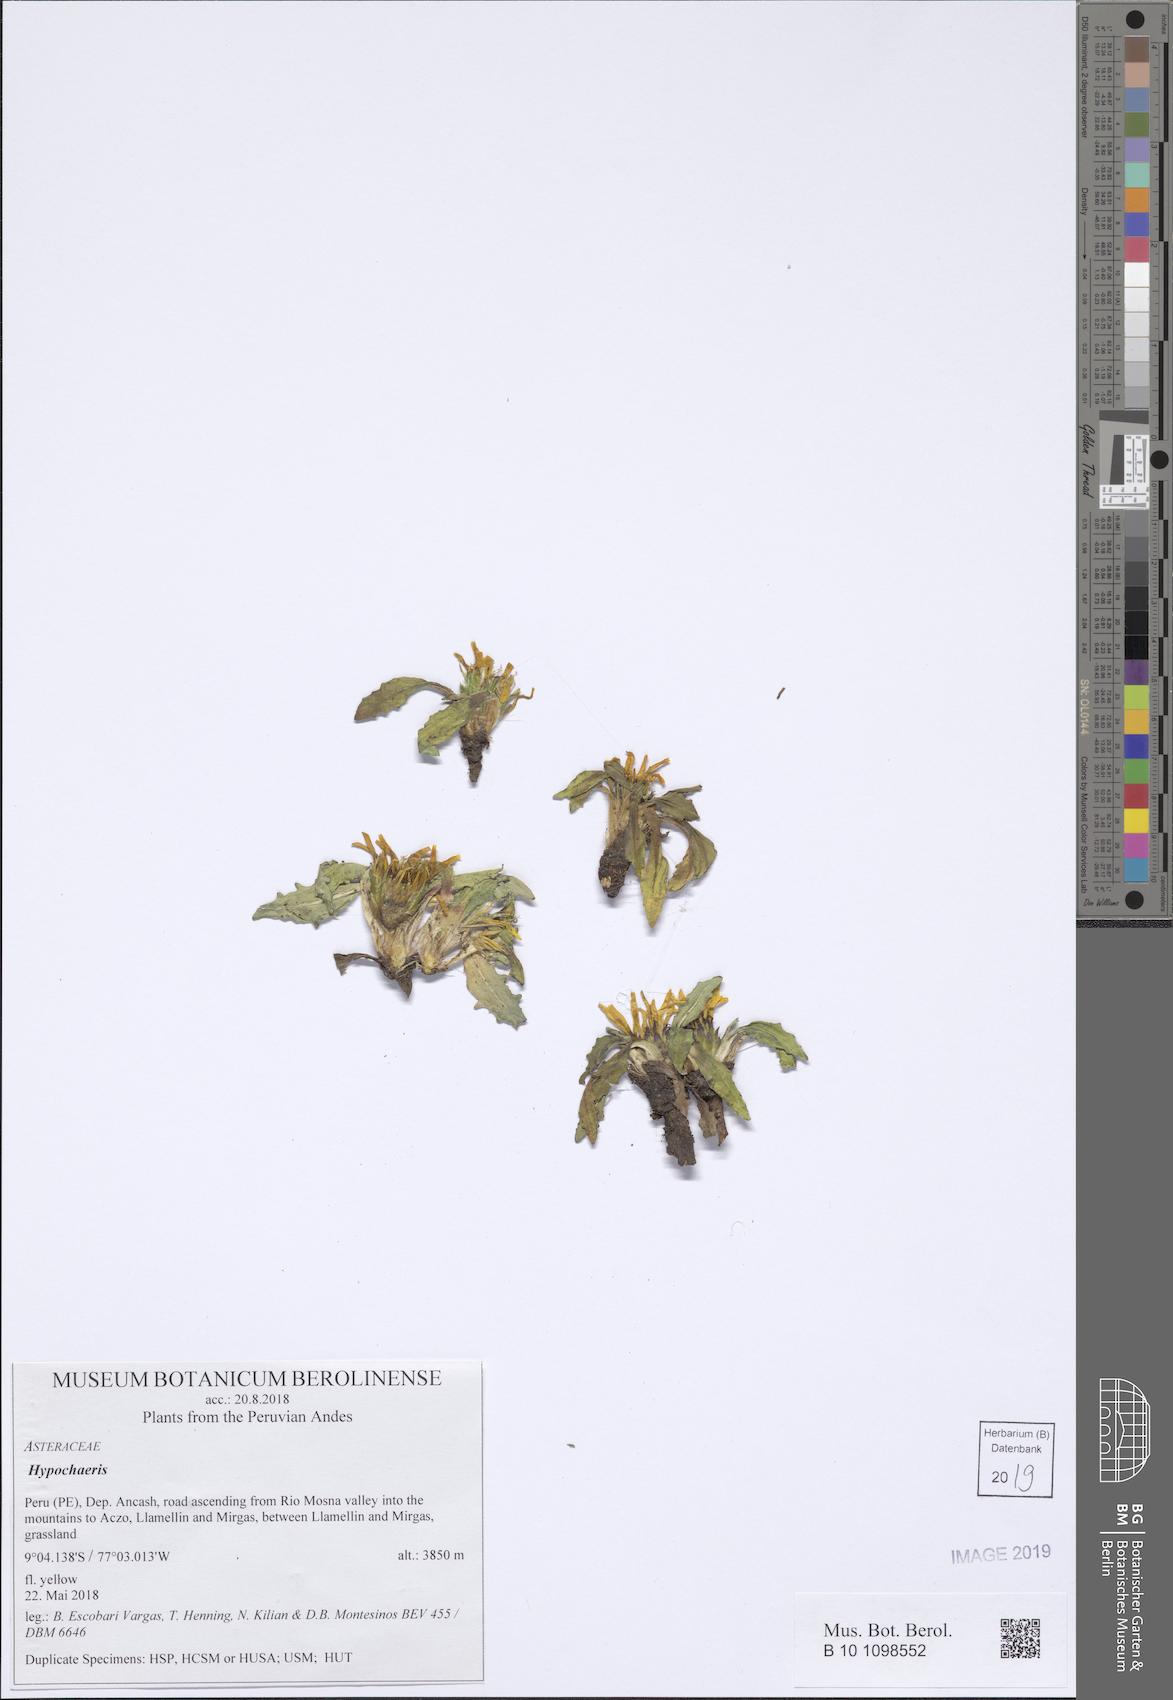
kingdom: Plantae
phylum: Tracheophyta
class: Magnoliopsida
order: Asterales
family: Asteraceae
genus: Hypochaeris
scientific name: Hypochaeris
